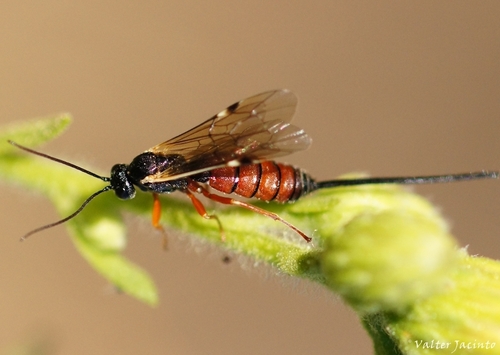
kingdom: Animalia
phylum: Arthropoda
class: Insecta
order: Hymenoptera
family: Ichneumonidae
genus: Exeristes
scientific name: Exeristes
